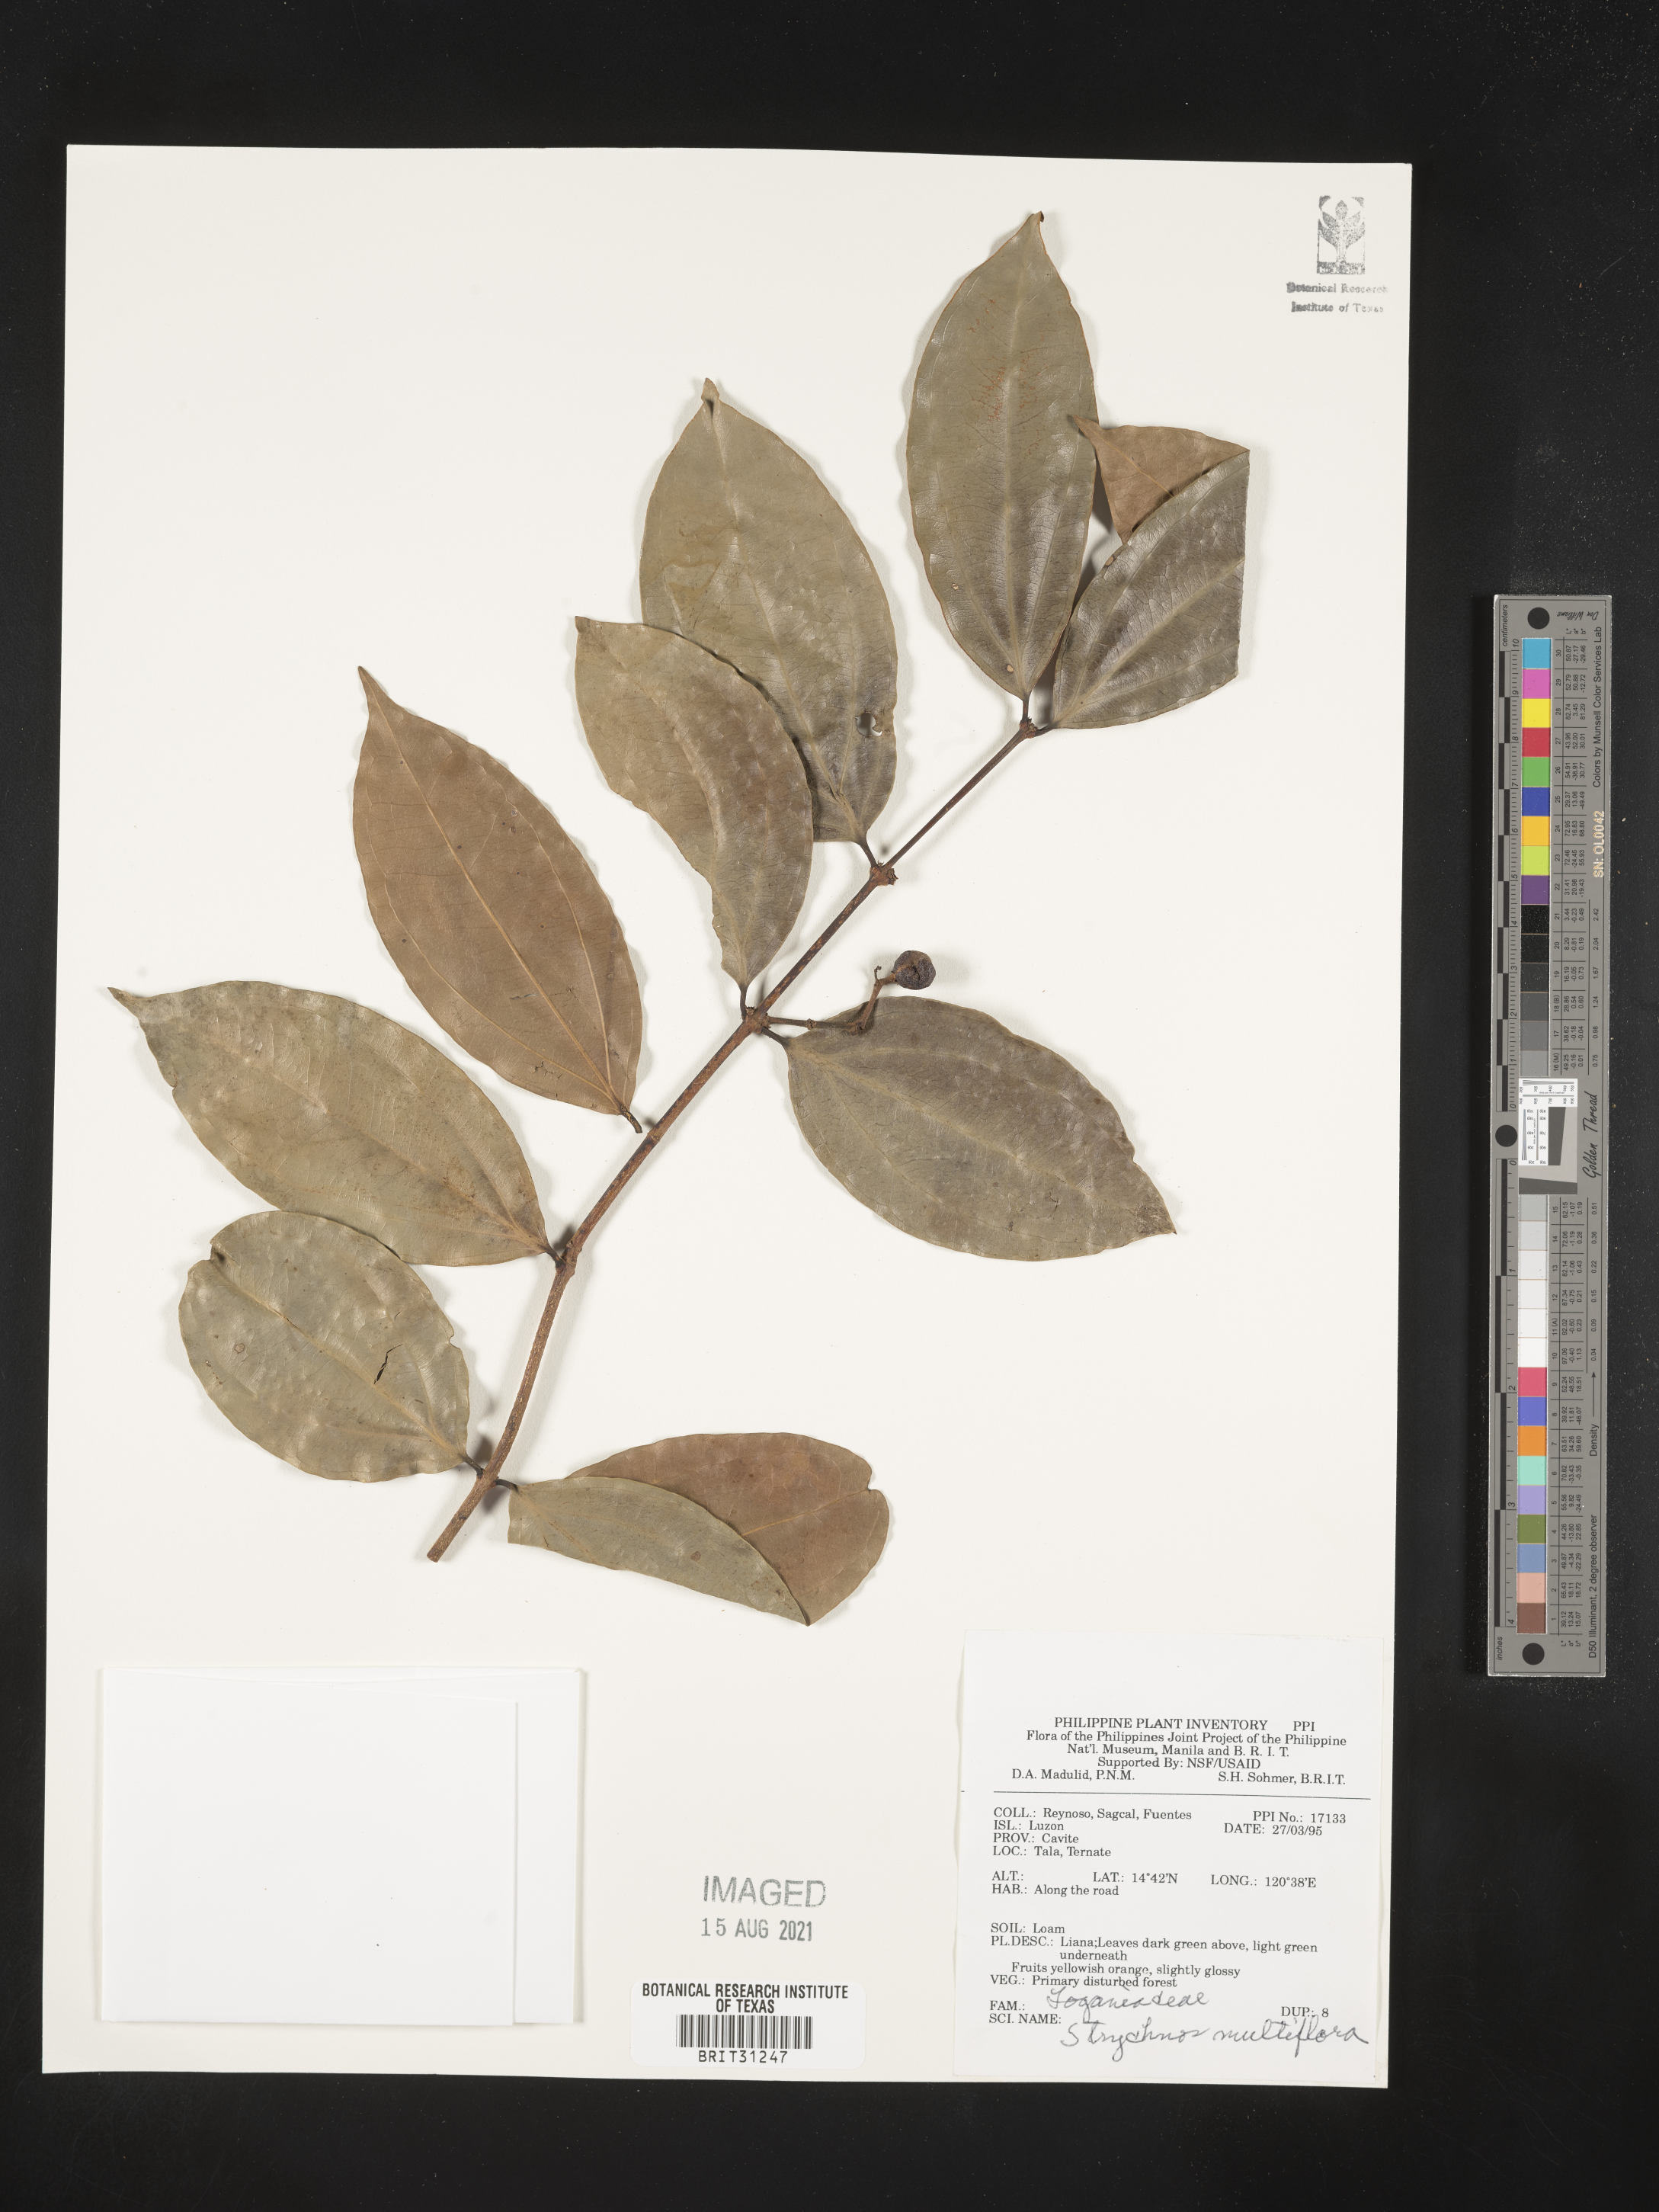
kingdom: Plantae
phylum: Tracheophyta
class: Magnoliopsida
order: Gentianales
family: Loganiaceae
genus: Strychnos
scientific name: Strychnos minor
